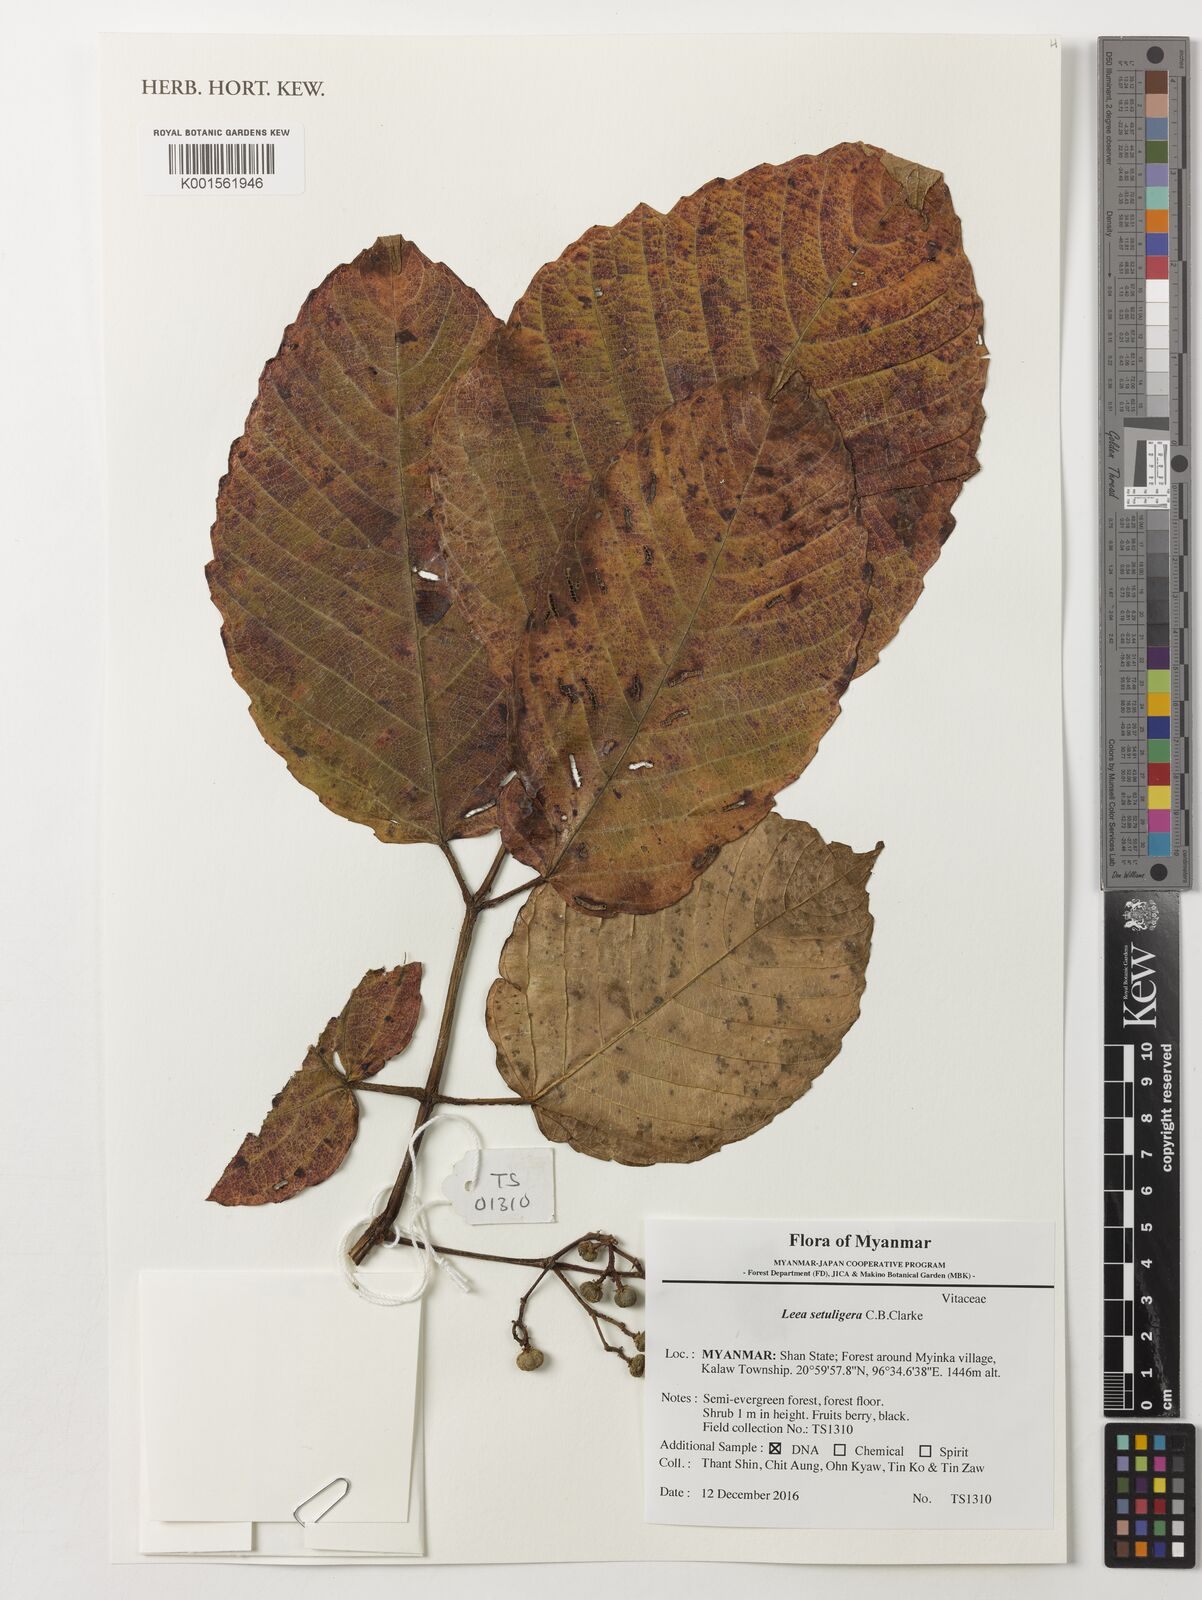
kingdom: Plantae
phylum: Tracheophyta
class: Magnoliopsida
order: Vitales
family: Vitaceae
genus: Leea
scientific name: Leea setuligera
